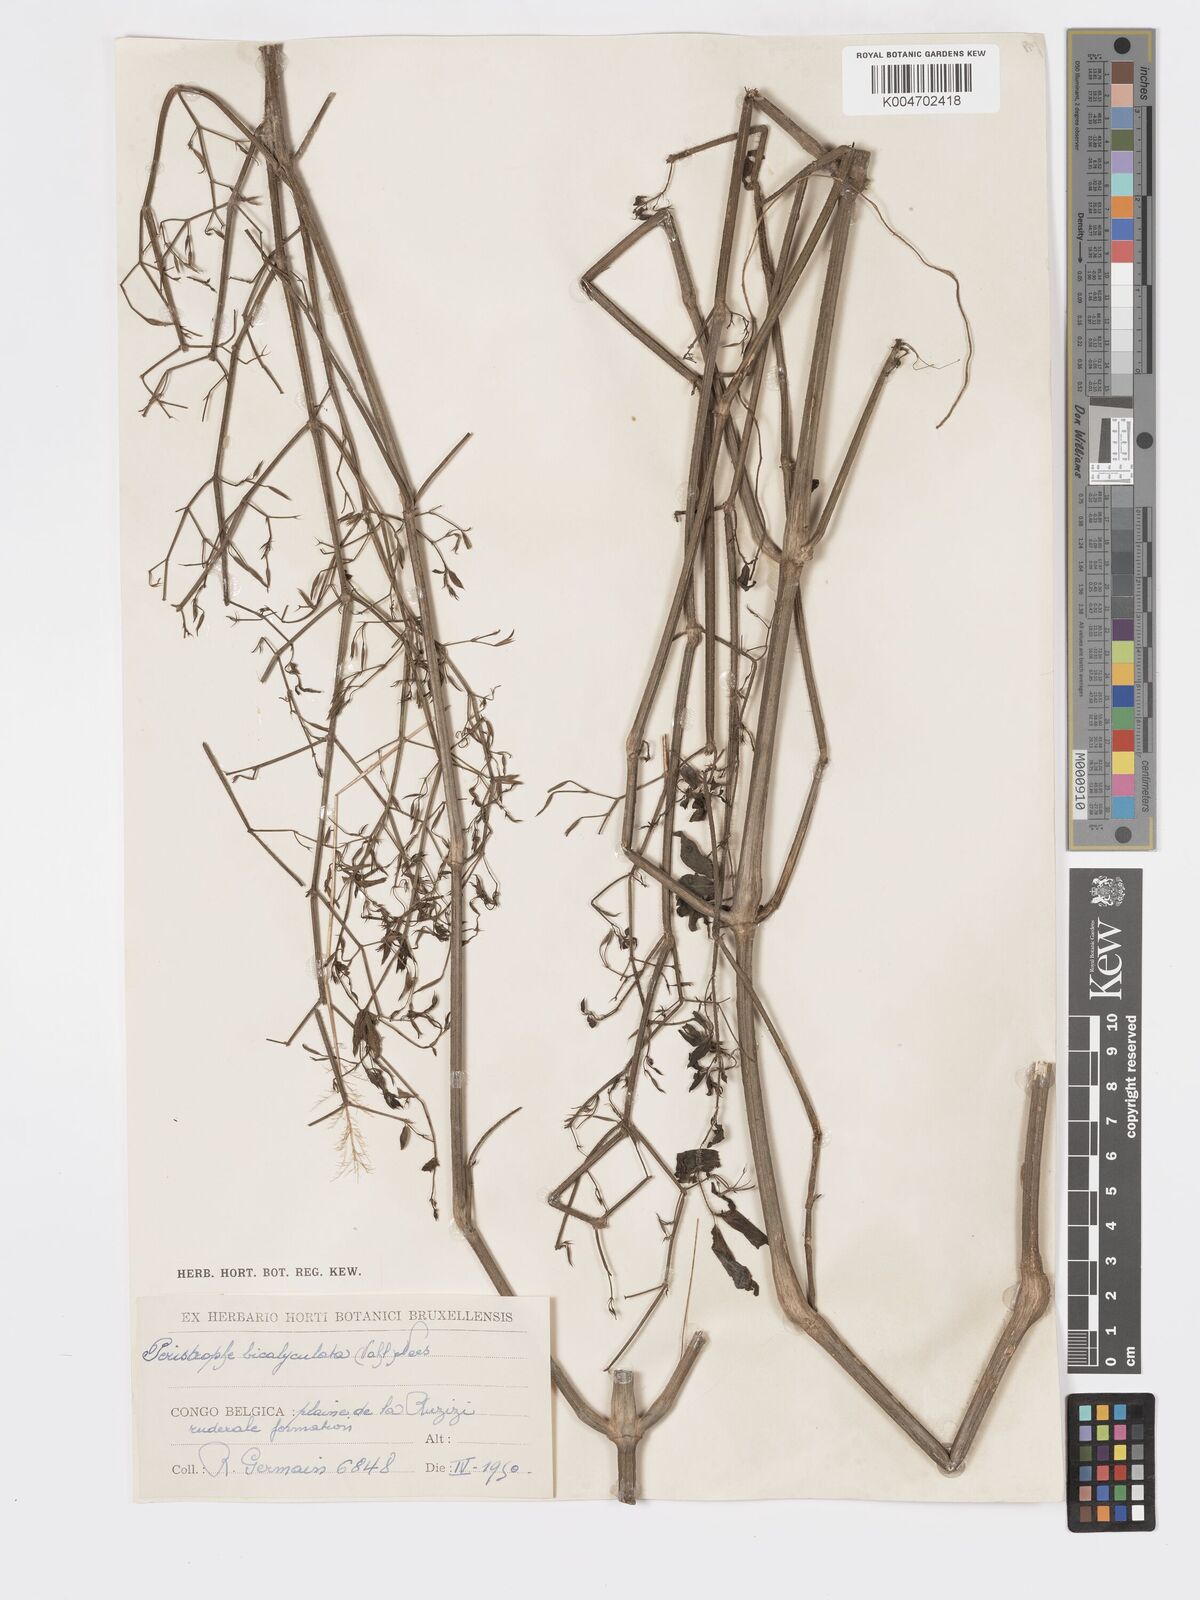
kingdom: Plantae
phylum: Tracheophyta
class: Magnoliopsida
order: Lamiales
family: Acanthaceae
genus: Dicliptera
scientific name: Dicliptera paniculata
